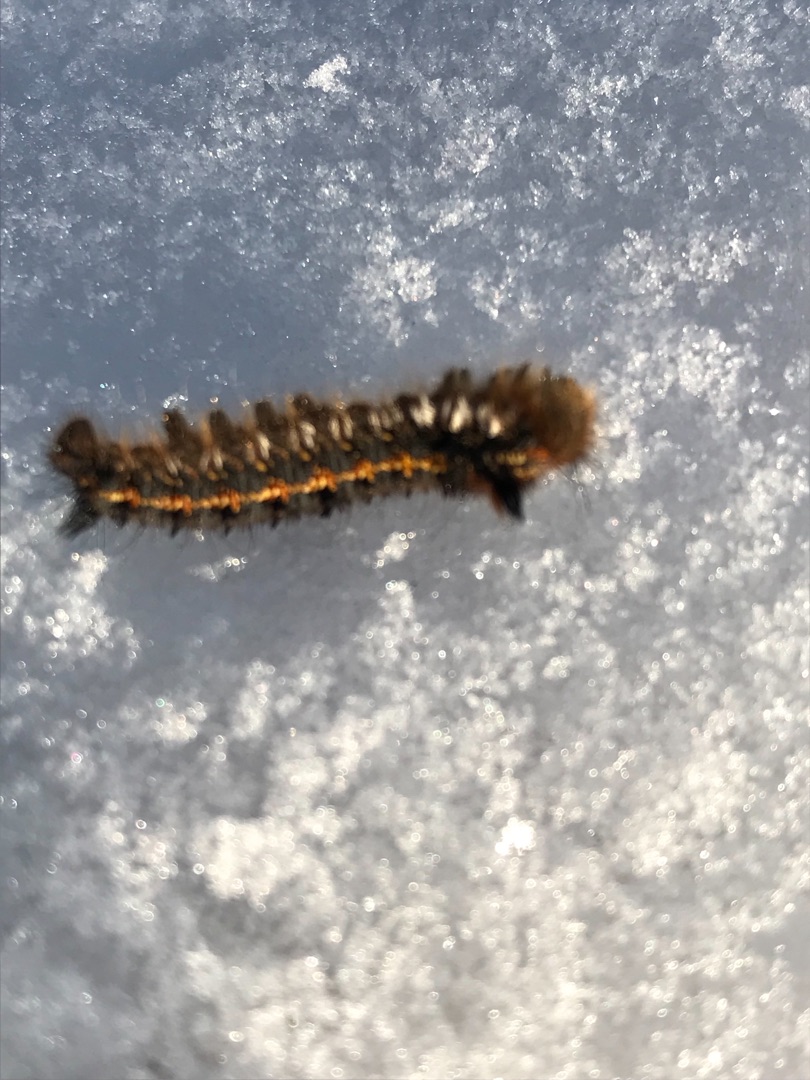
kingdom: Animalia
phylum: Arthropoda
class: Insecta
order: Lepidoptera
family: Lasiocampidae
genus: Euthrix
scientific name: Euthrix potatoria
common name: Græsspinder
